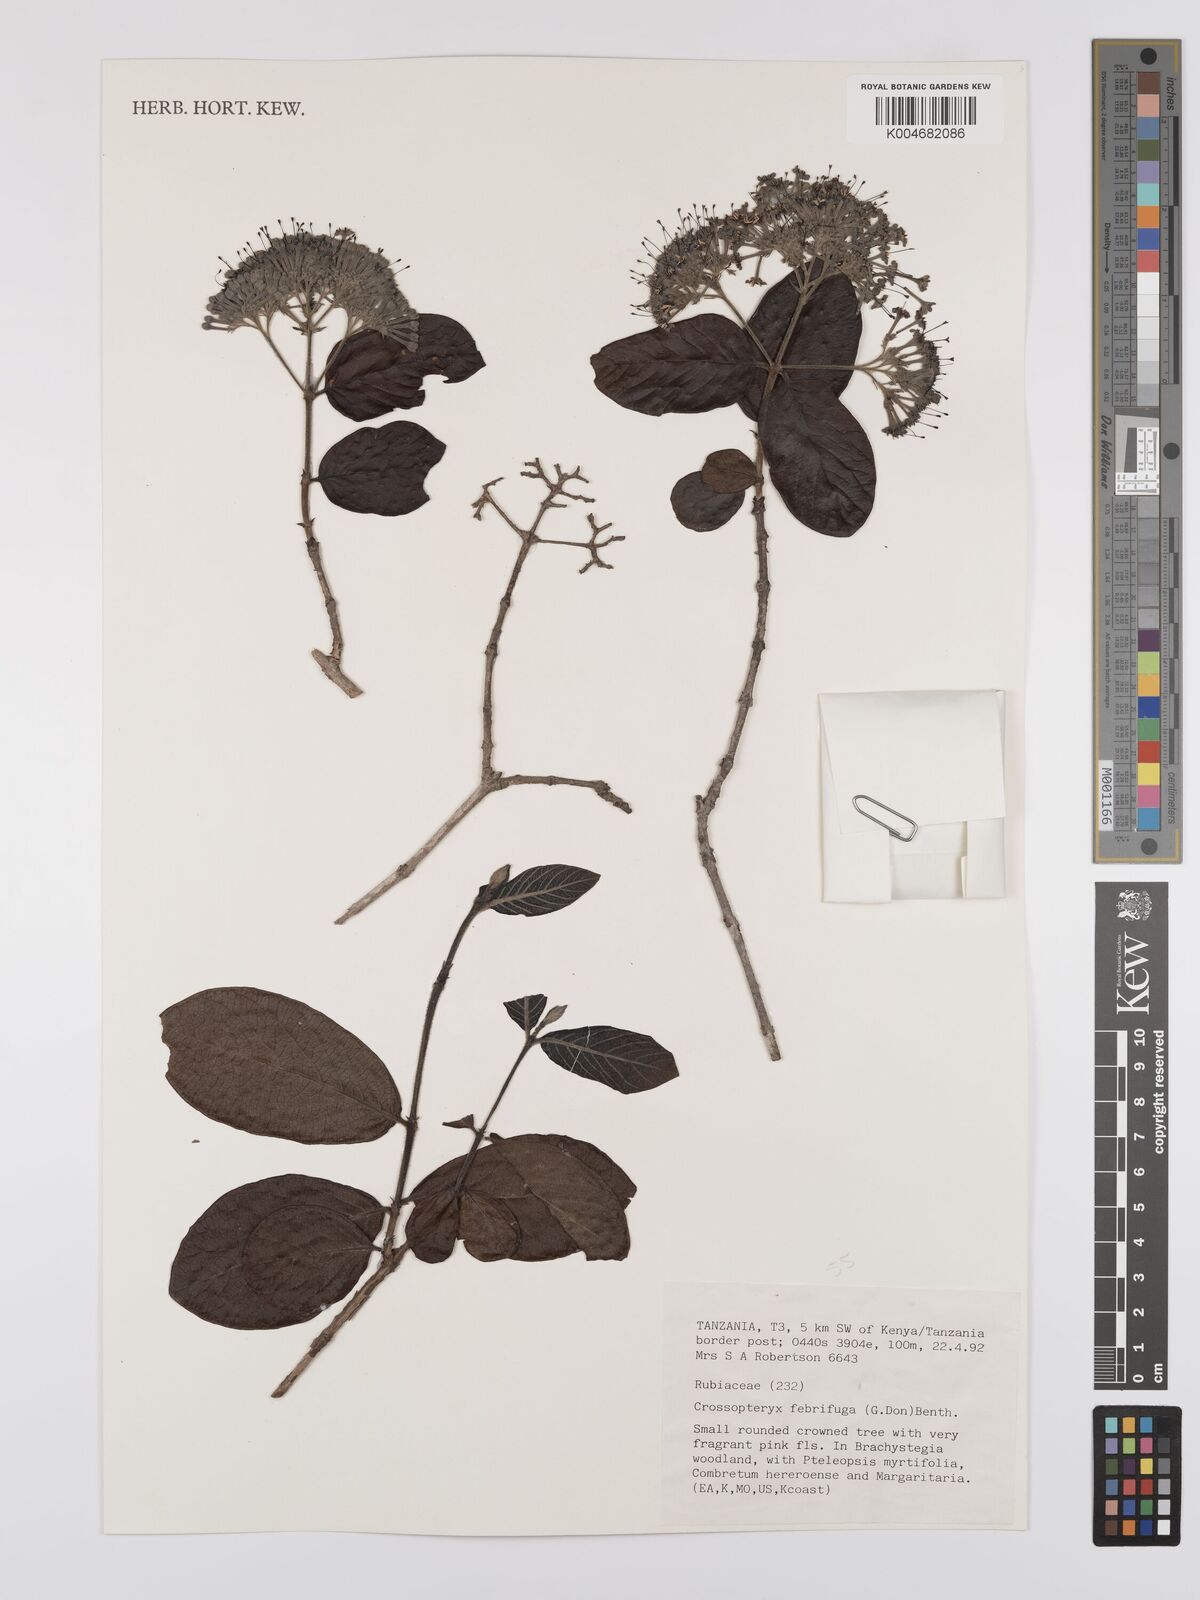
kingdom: Plantae
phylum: Tracheophyta
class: Magnoliopsida
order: Gentianales
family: Rubiaceae
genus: Crossopteryx
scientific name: Crossopteryx febrifuga
